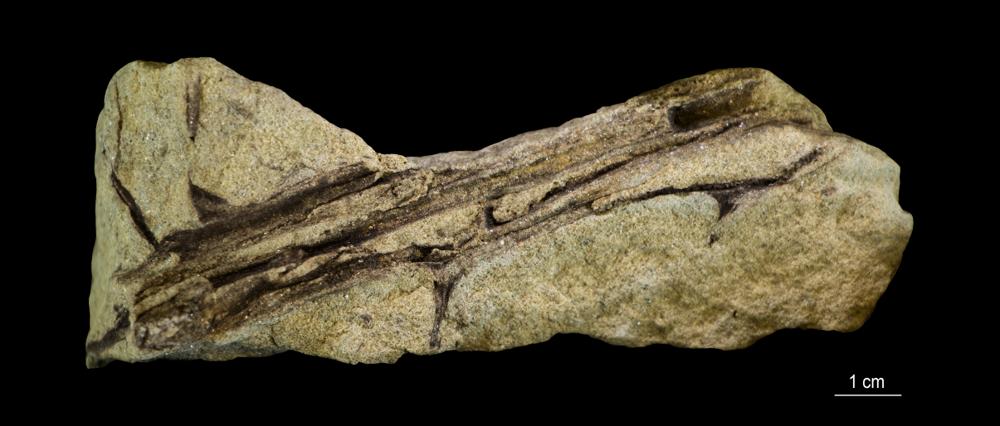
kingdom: Plantae
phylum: Tracheophyta
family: Aneurophytaceae
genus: Aneurophyton
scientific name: Aneurophyton
